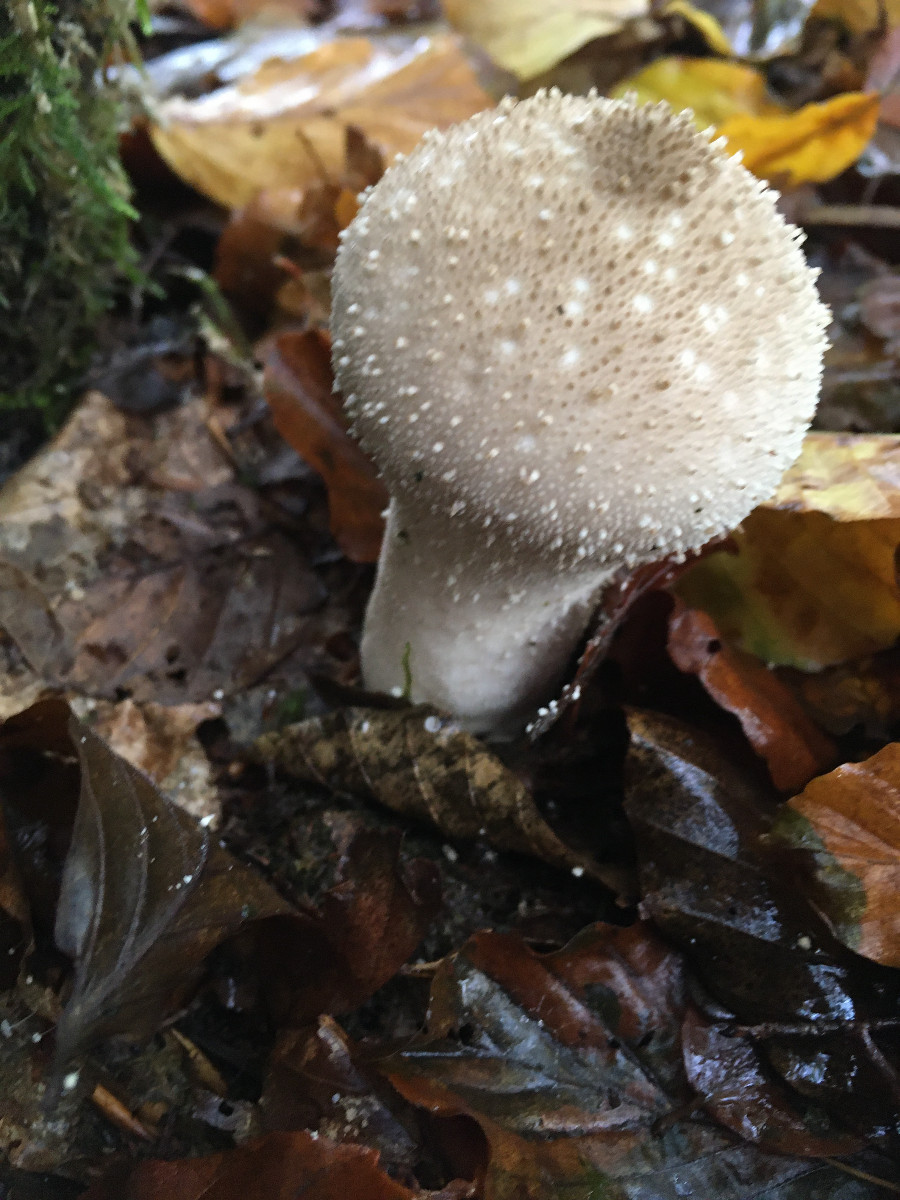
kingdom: Fungi
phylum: Basidiomycota
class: Agaricomycetes
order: Agaricales
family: Lycoperdaceae
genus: Lycoperdon
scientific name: Lycoperdon perlatum
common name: krystal-støvbold
